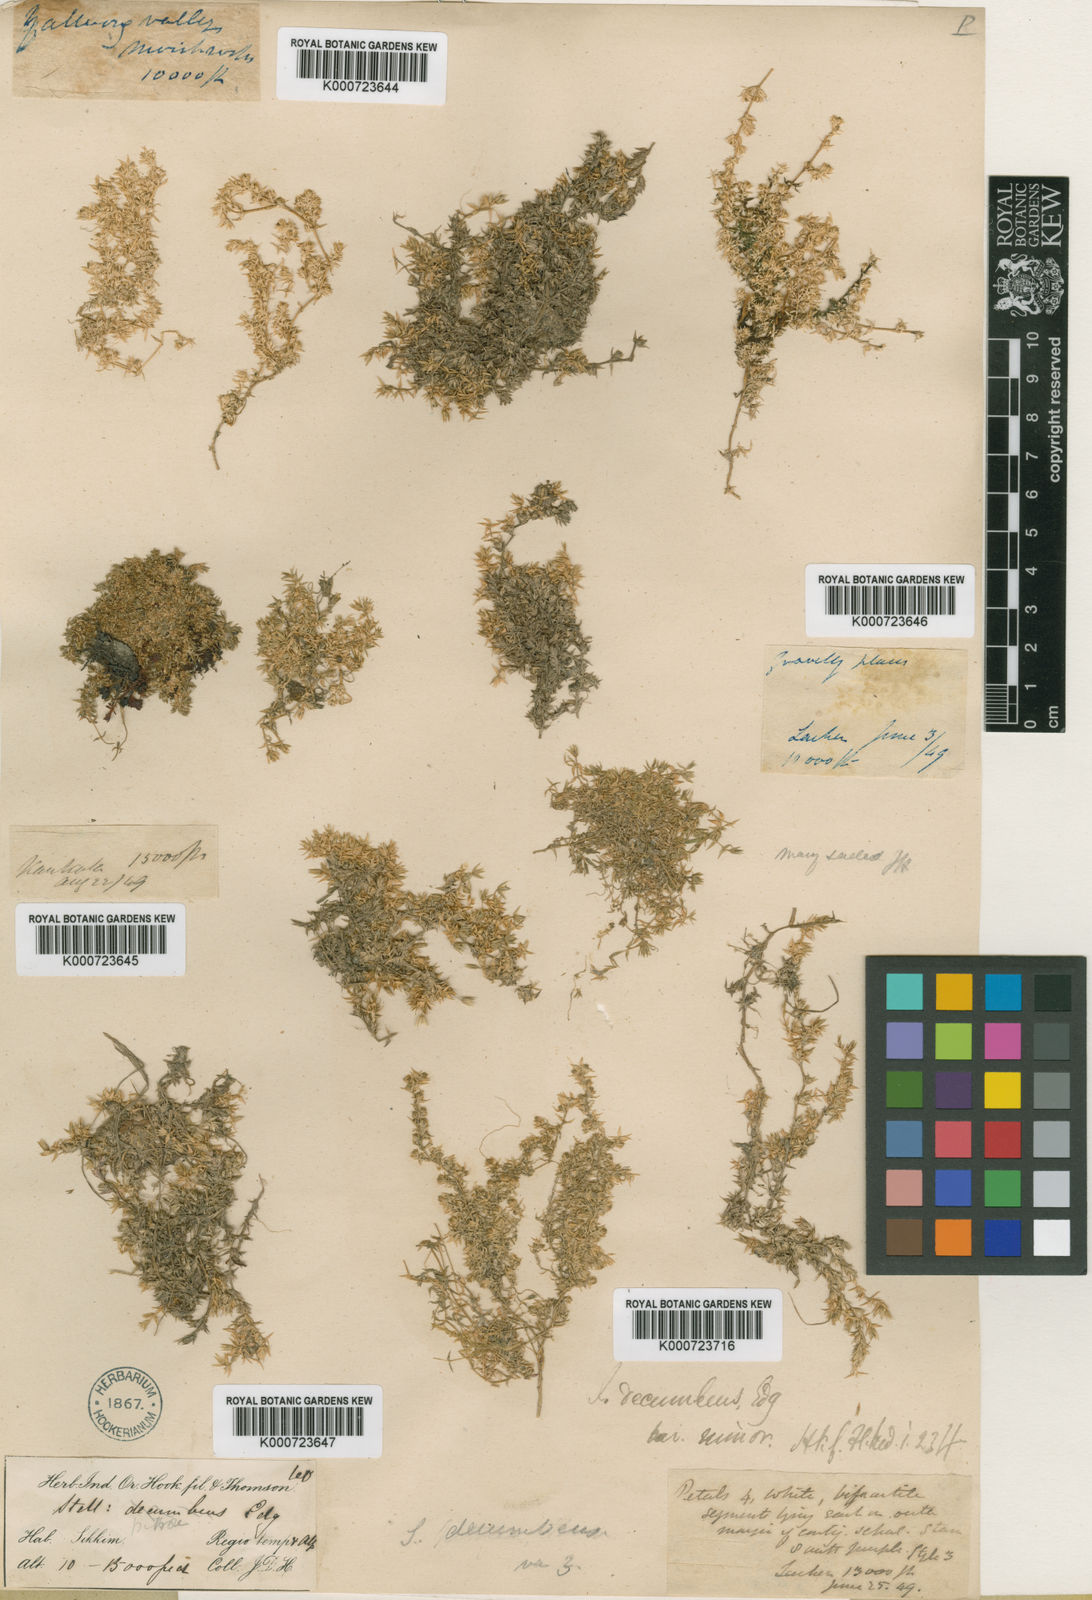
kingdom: Plantae
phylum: Tracheophyta
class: Magnoliopsida
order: Caryophyllales
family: Caryophyllaceae
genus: Stellaria
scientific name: Stellaria decumbens
